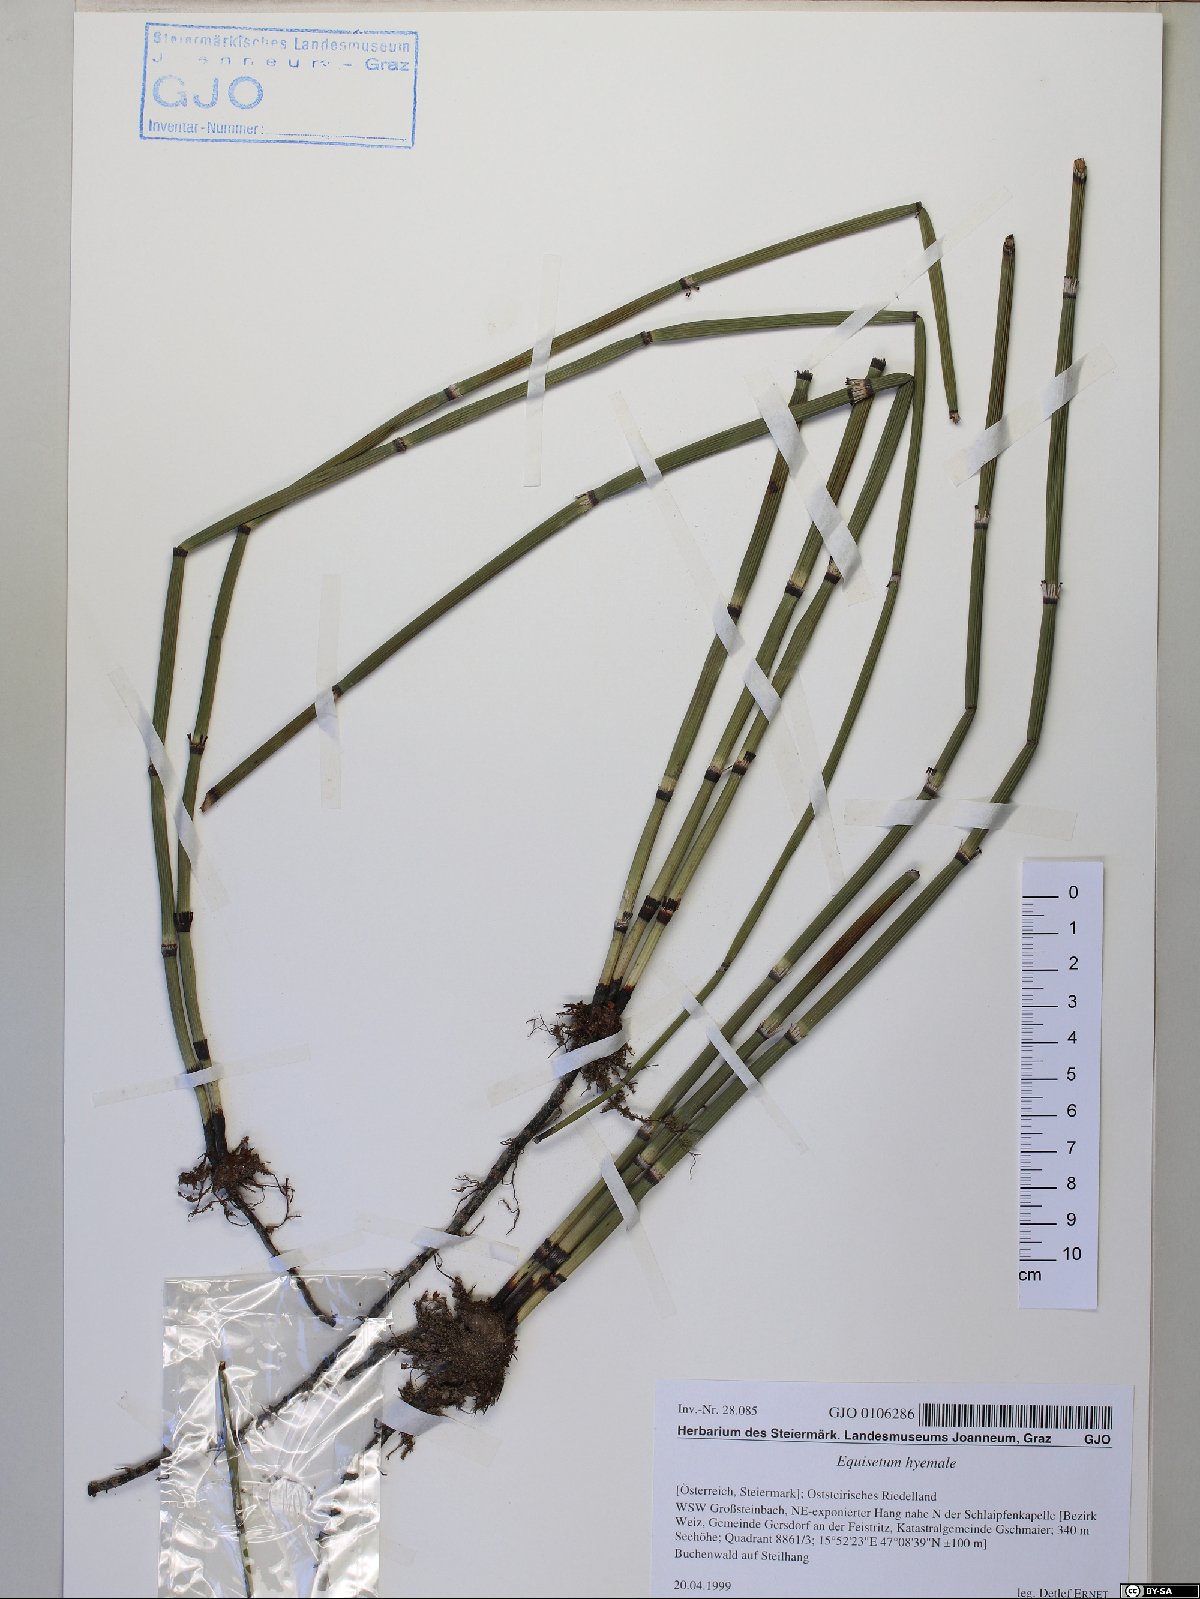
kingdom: Plantae
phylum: Tracheophyta
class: Polypodiopsida
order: Equisetales
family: Equisetaceae
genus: Equisetum
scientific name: Equisetum hyemale
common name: Rough horsetail
